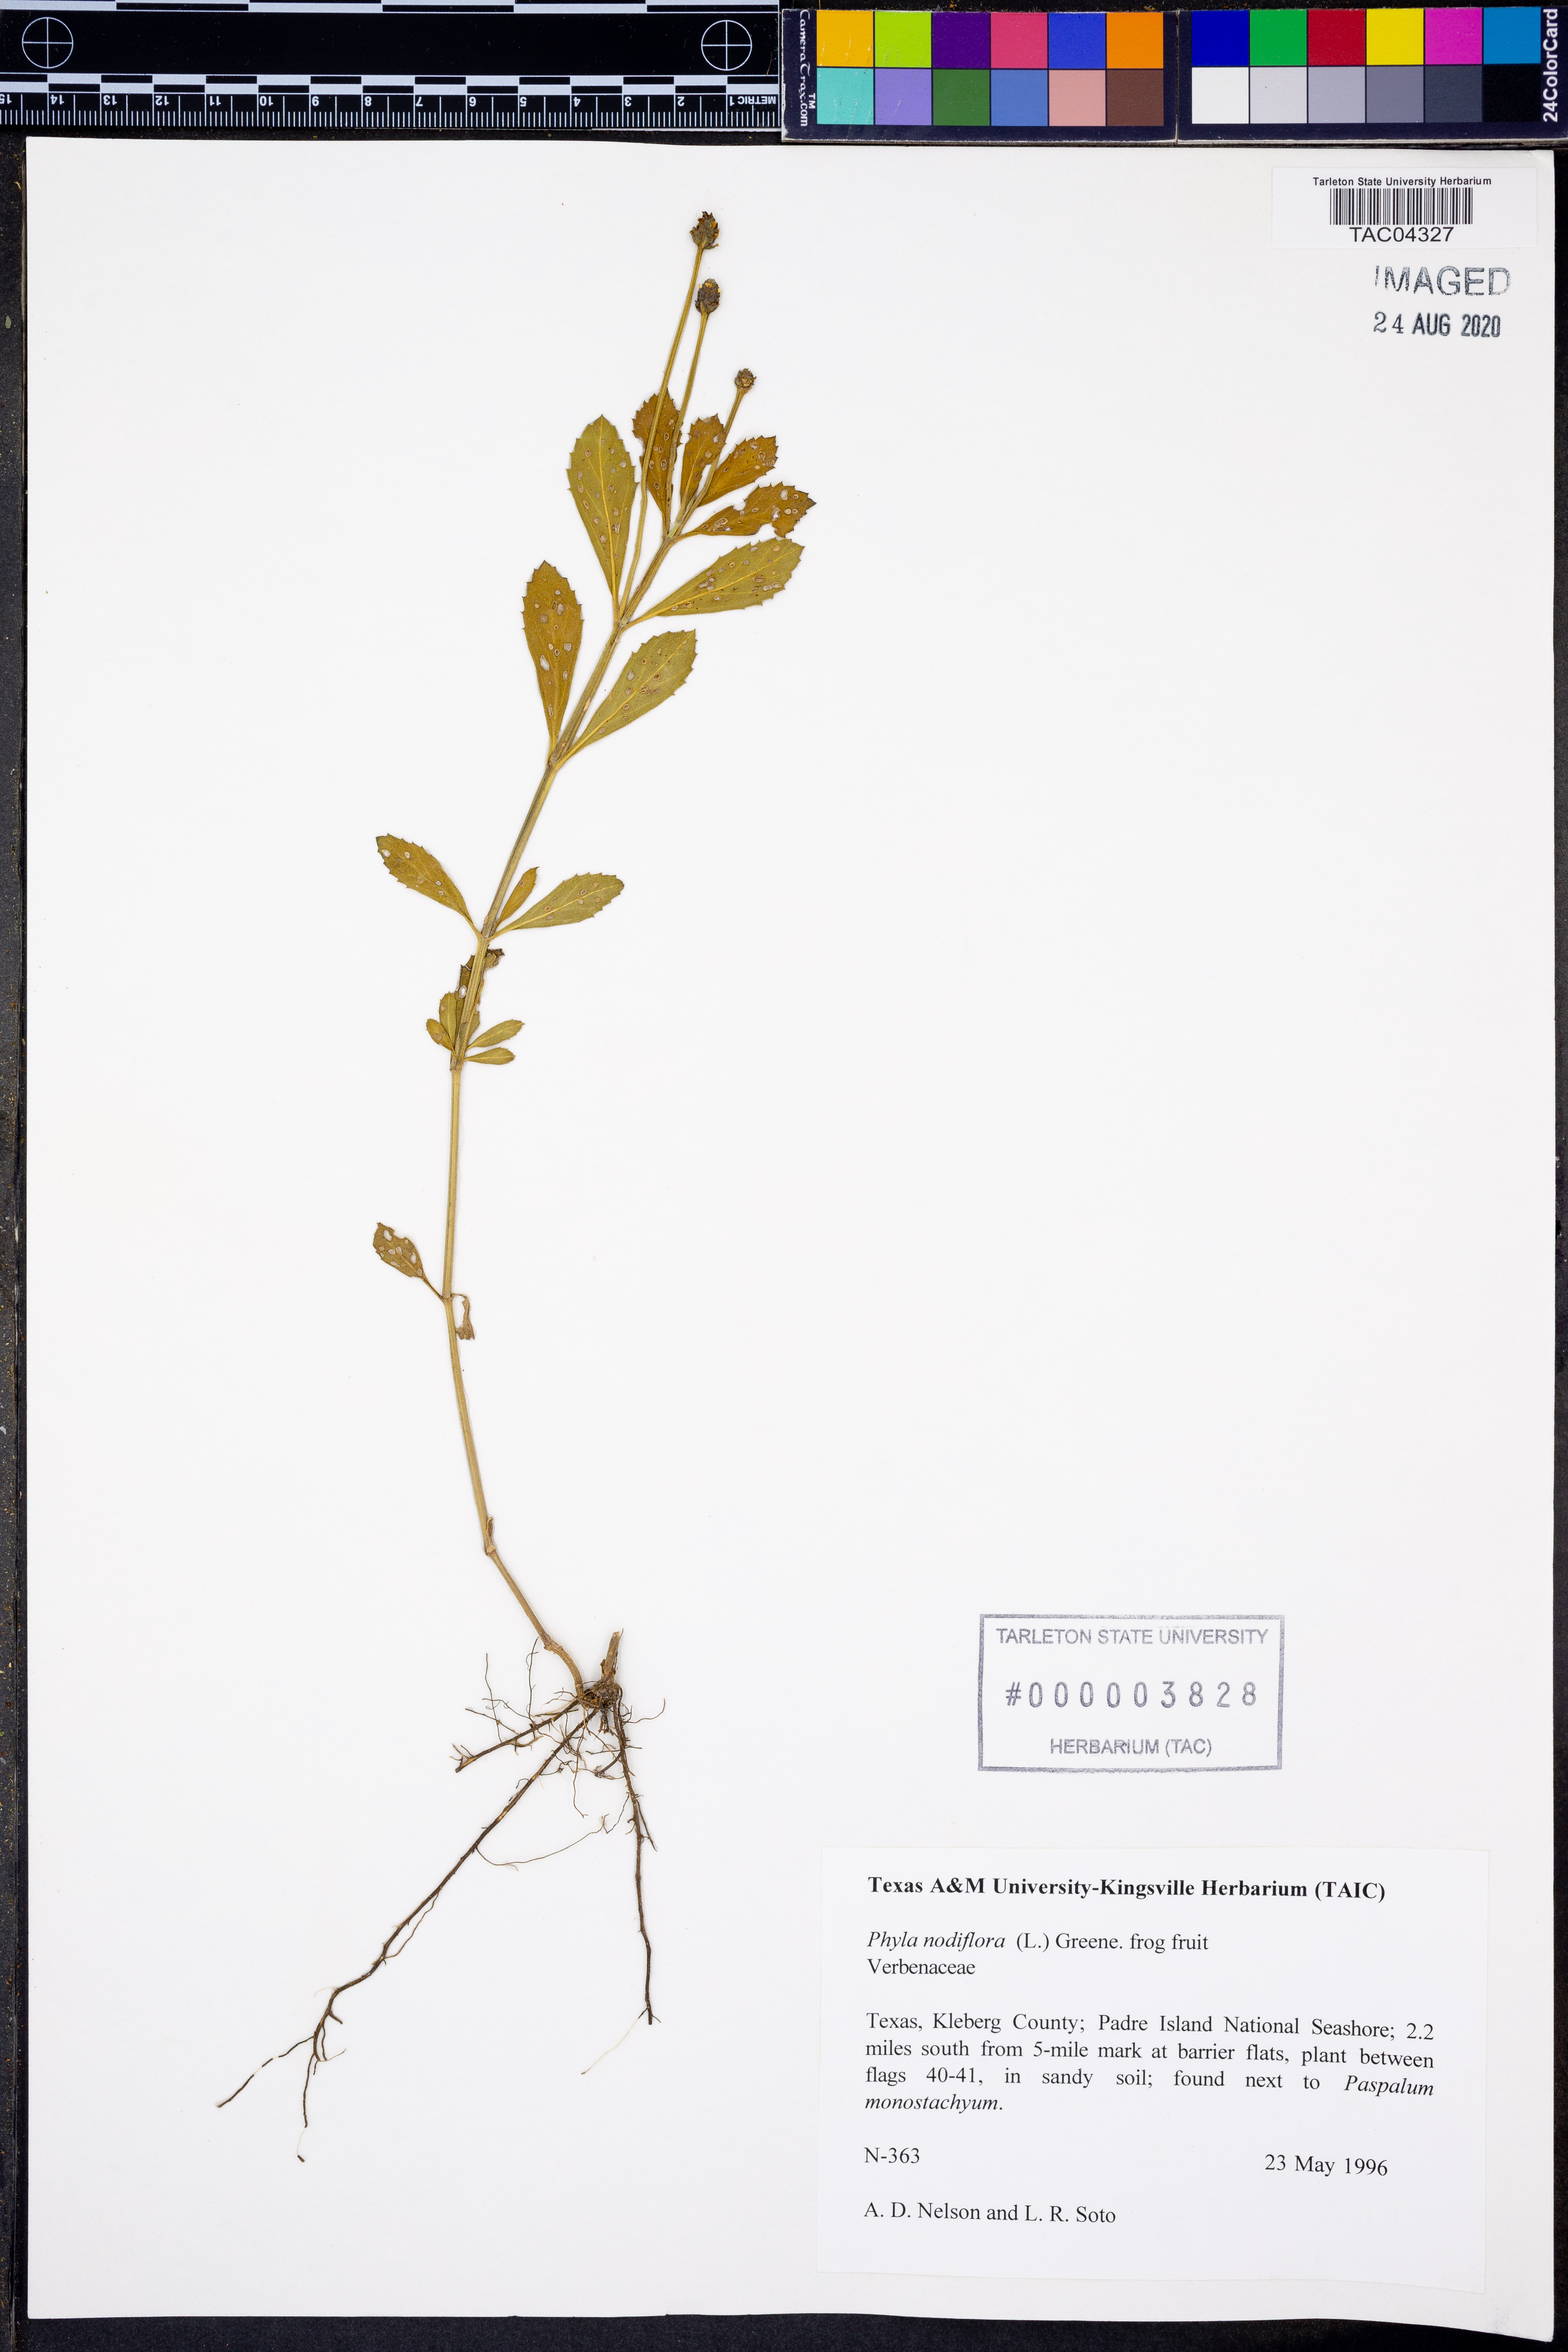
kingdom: Plantae
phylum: Tracheophyta
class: Magnoliopsida
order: Lamiales
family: Verbenaceae
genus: Phyla
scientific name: Phyla nodiflora
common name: Frogfruit
